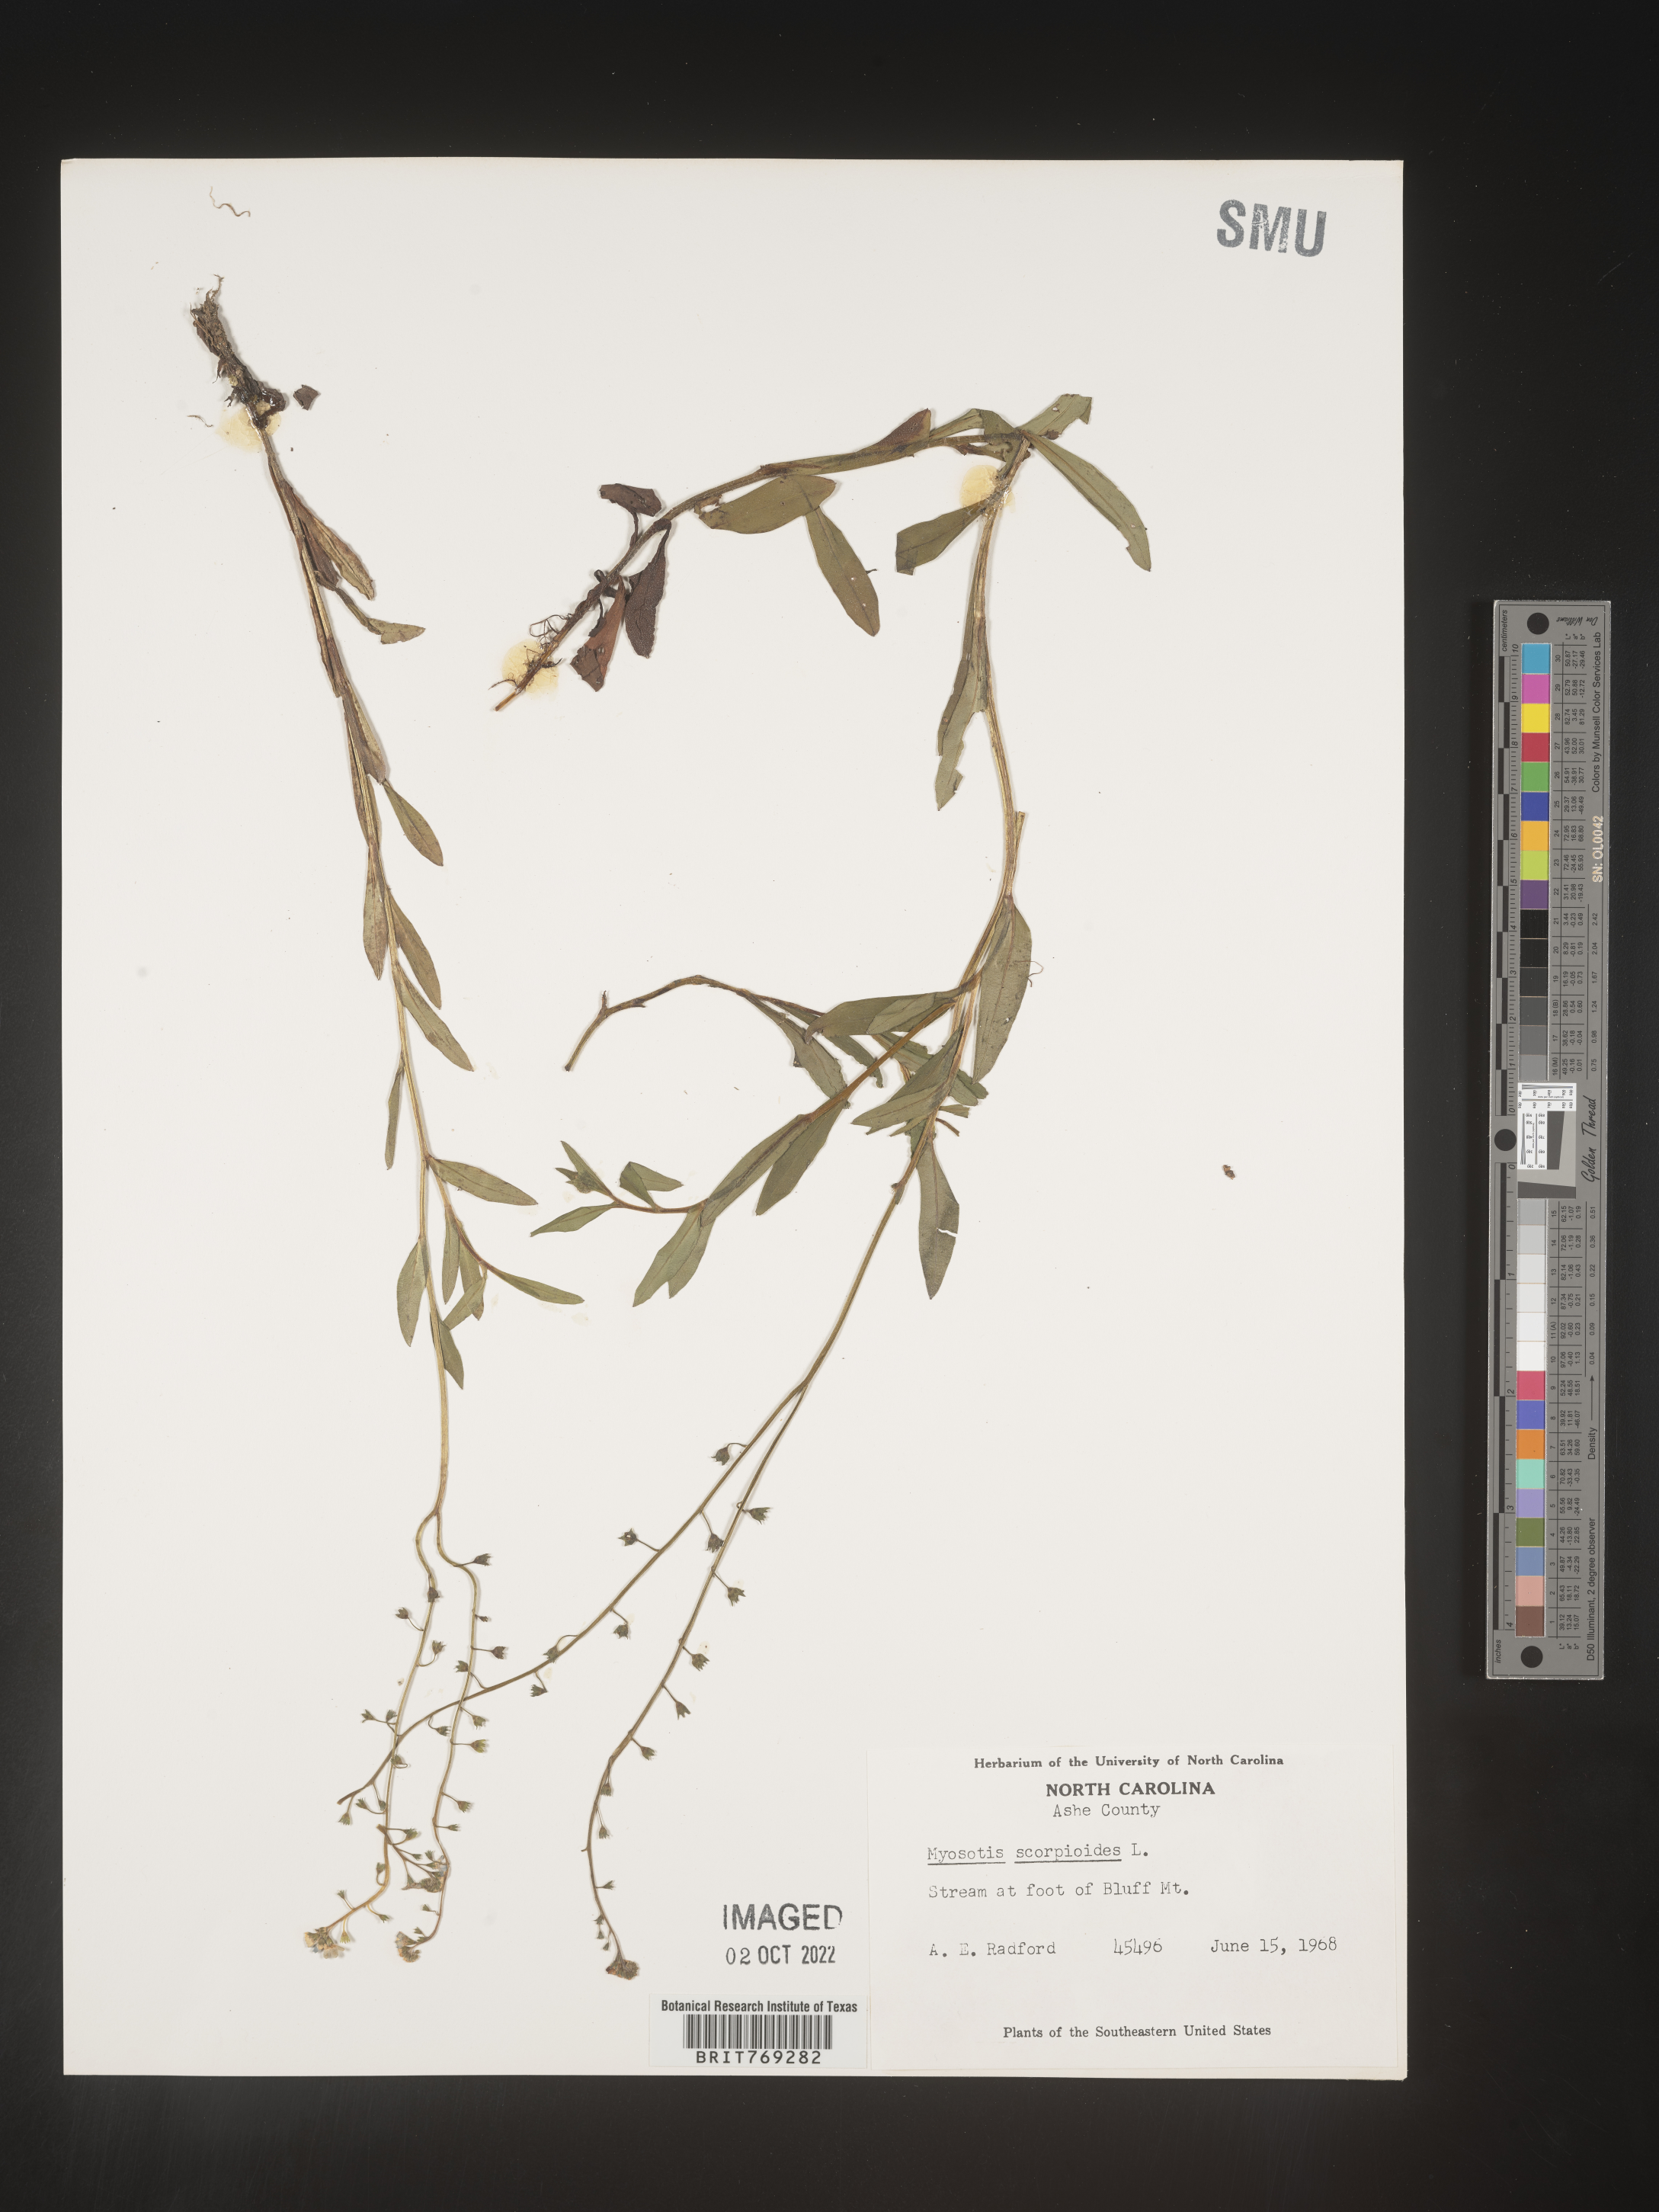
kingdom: Plantae
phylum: Tracheophyta
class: Magnoliopsida
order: Boraginales
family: Boraginaceae
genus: Myosotis
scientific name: Myosotis scorpioides
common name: Water forget-me-not
